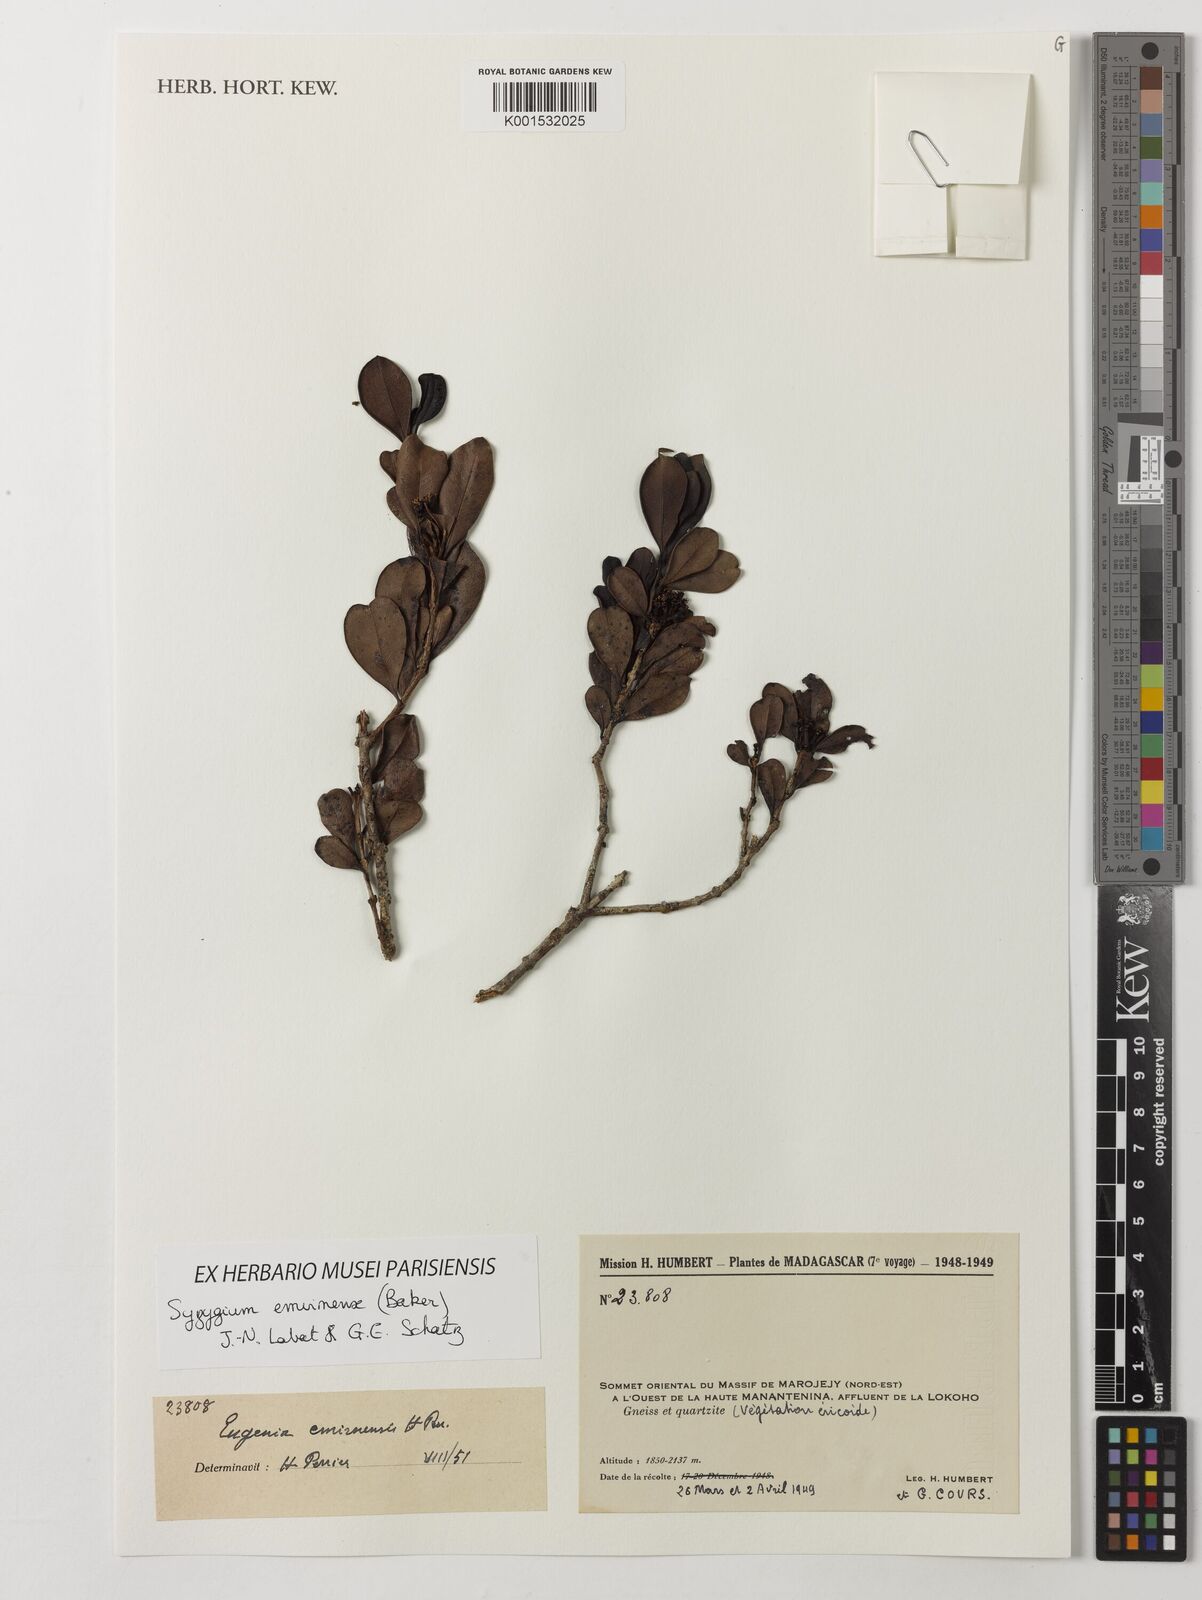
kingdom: Plantae
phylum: Tracheophyta
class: Magnoliopsida
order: Myrtales
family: Myrtaceae
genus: Syzygium
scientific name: Syzygium emirnense
